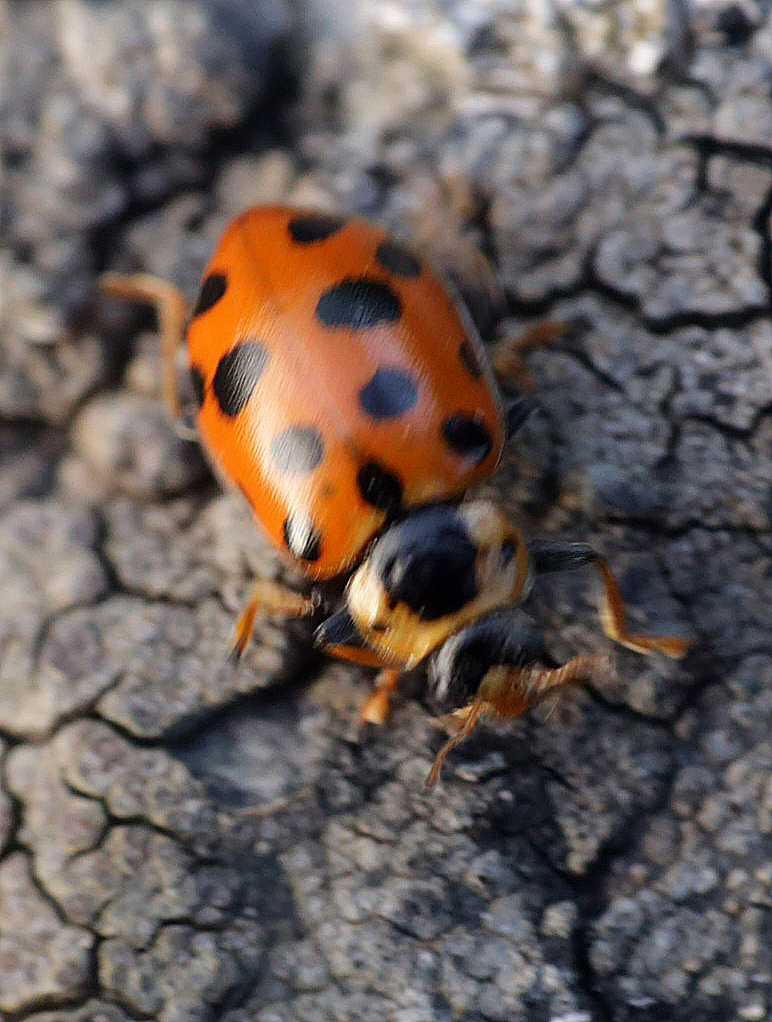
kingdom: Animalia
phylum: Arthropoda
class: Insecta
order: Coleoptera
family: Coccinellidae
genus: Hippodamia
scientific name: Hippodamia tredecimpunctata
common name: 13-spot ladybird
